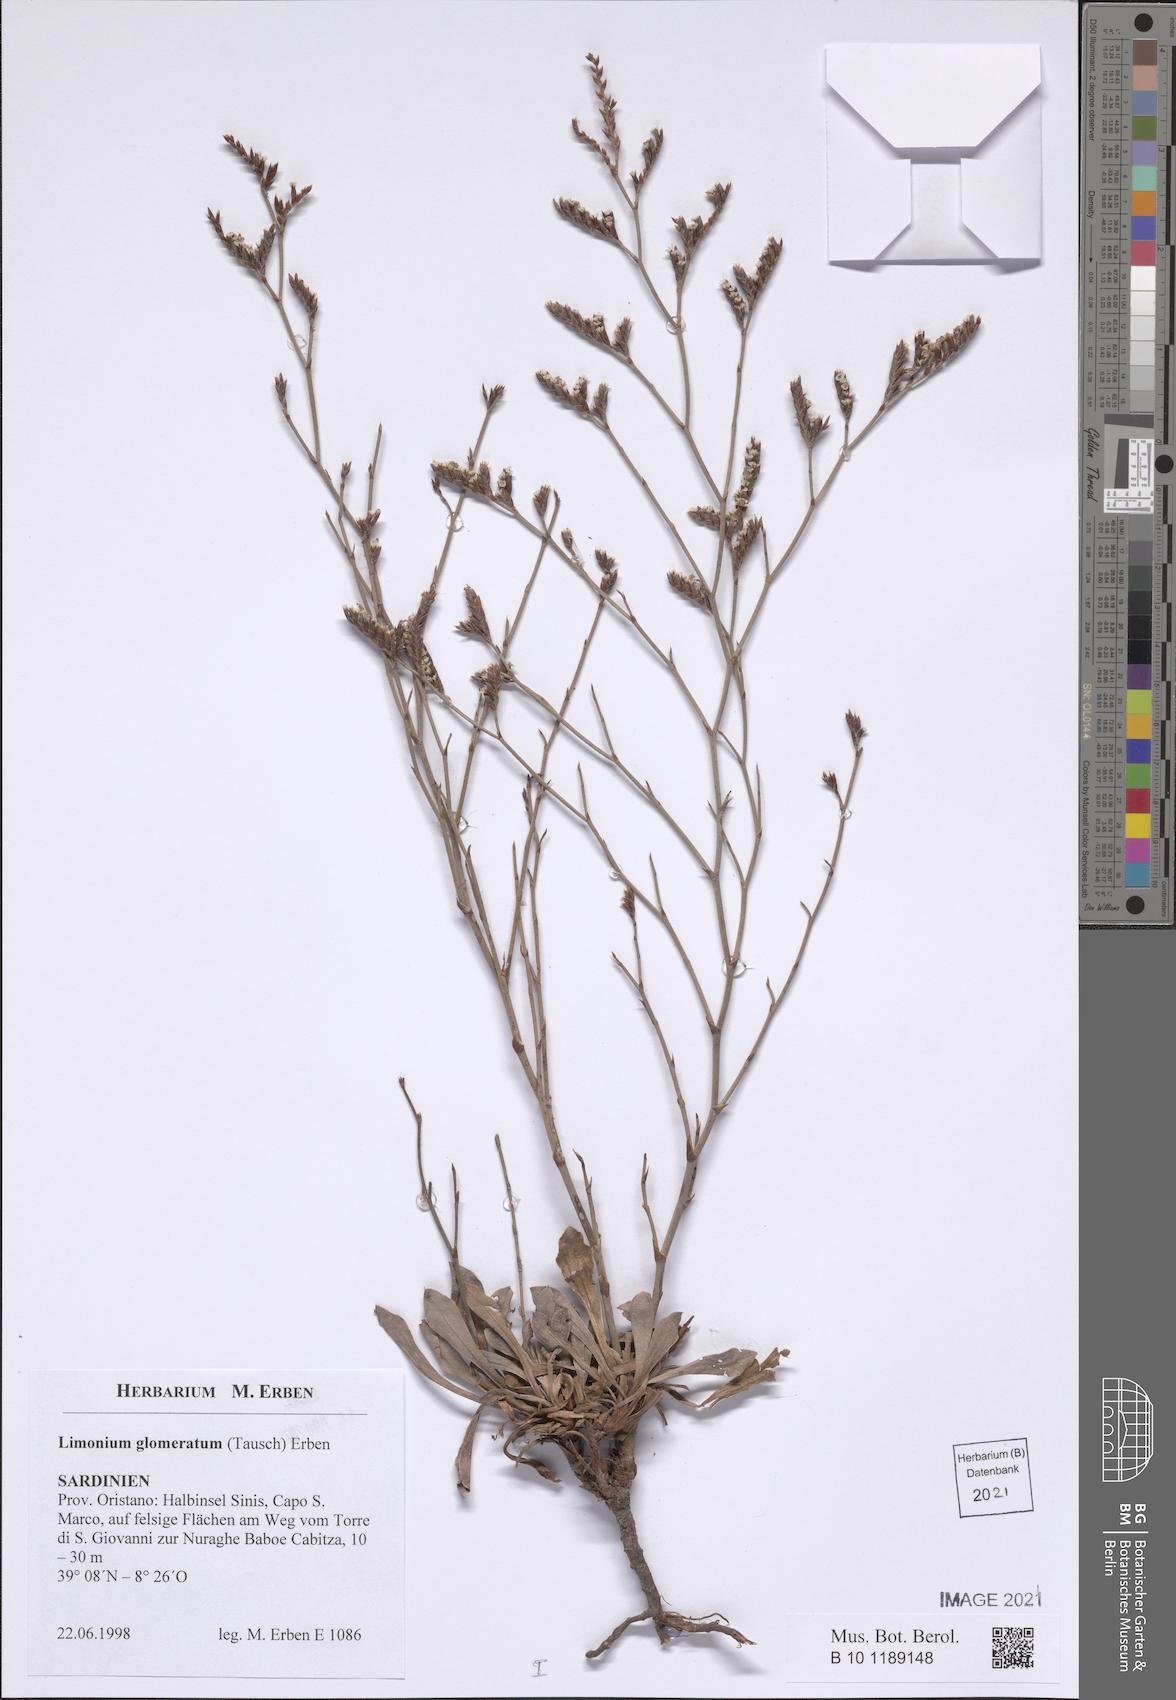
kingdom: Plantae
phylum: Tracheophyta
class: Magnoliopsida
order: Caryophyllales
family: Plumbaginaceae
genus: Limonium
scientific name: Limonium glomeratum
